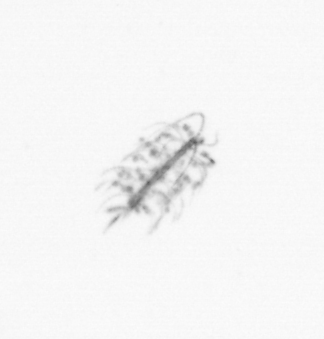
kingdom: Chromista
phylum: Ochrophyta
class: Bacillariophyceae
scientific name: Bacillariophyceae
